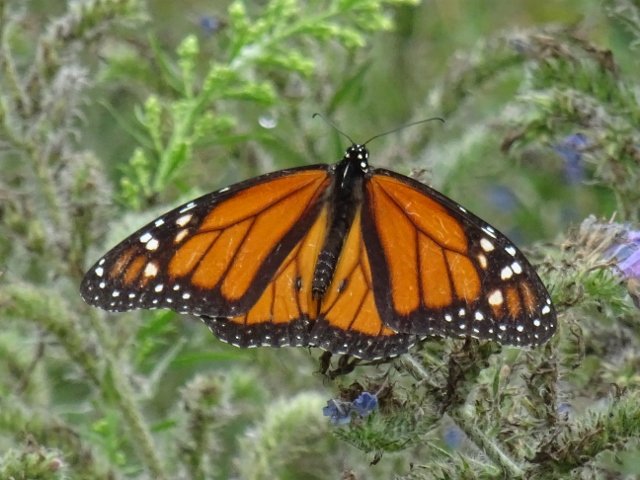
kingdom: Animalia
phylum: Arthropoda
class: Insecta
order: Lepidoptera
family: Nymphalidae
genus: Danaus
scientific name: Danaus plexippus
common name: Monarch
